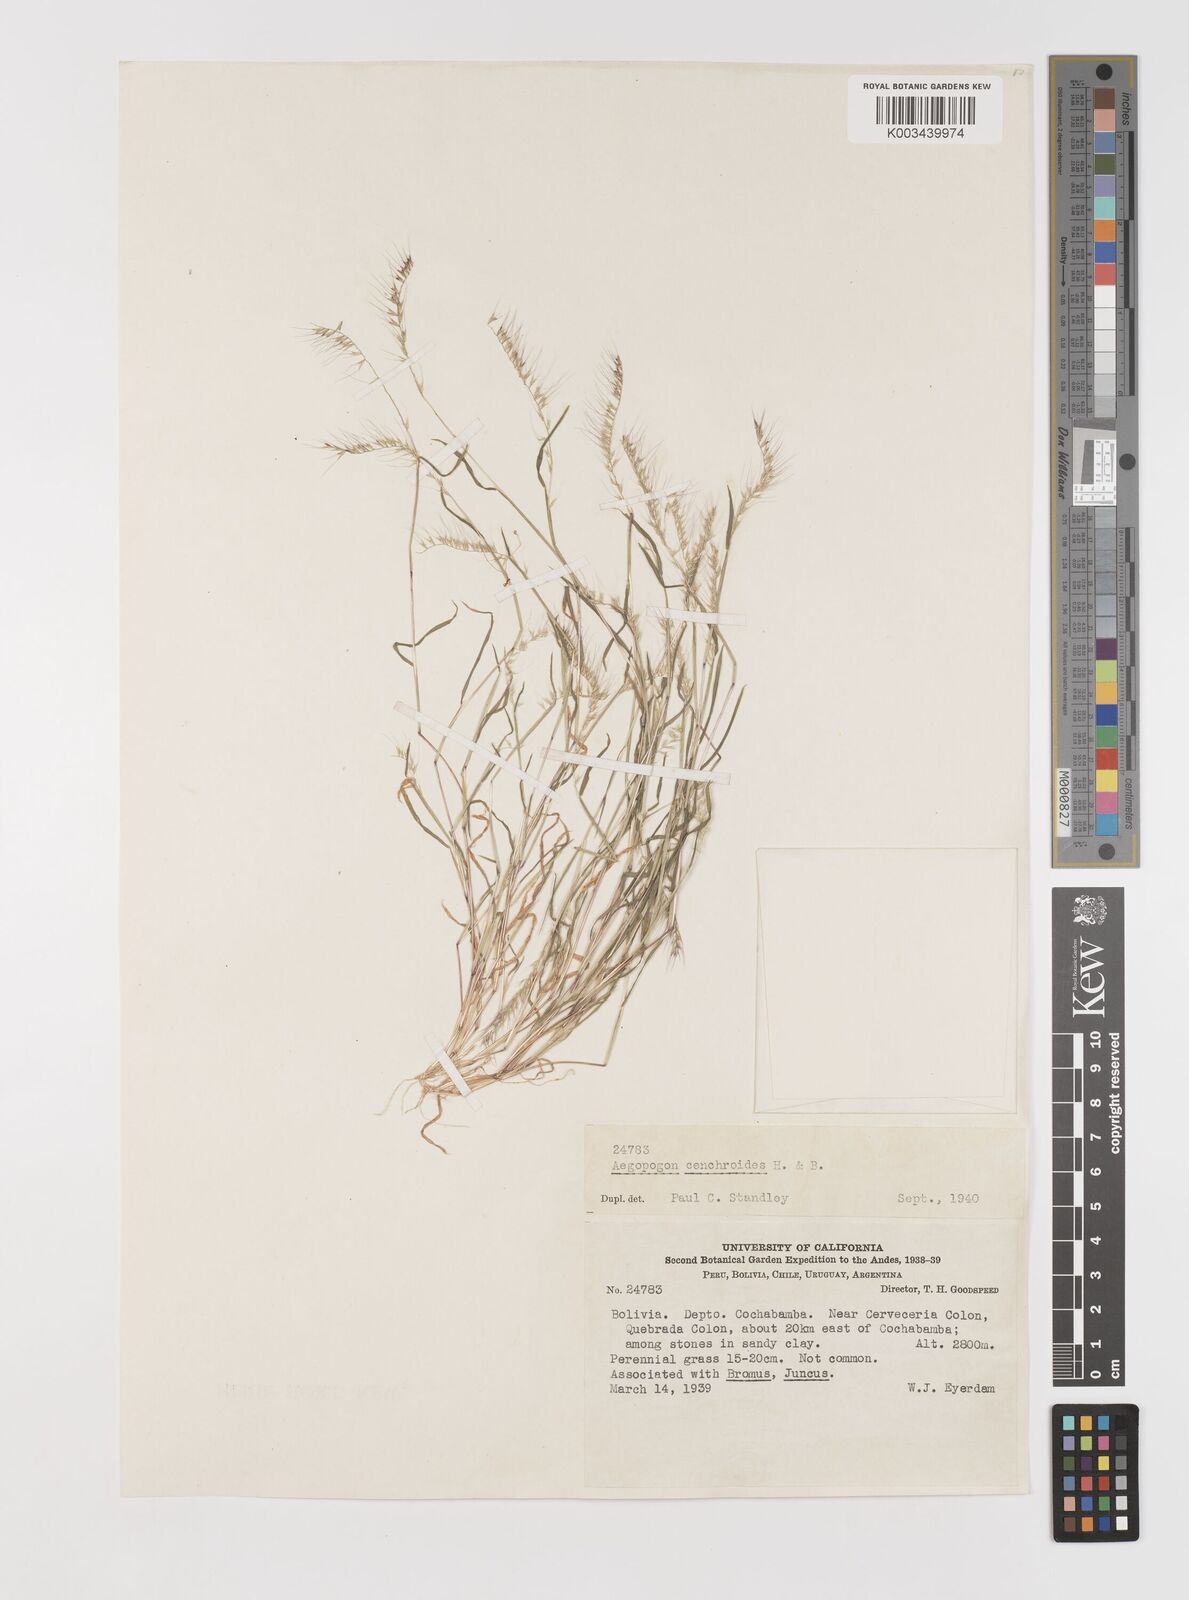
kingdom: Plantae
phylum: Tracheophyta
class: Liliopsida
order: Poales
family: Poaceae
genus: Muhlenbergia
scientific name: Muhlenbergia bryophilus
